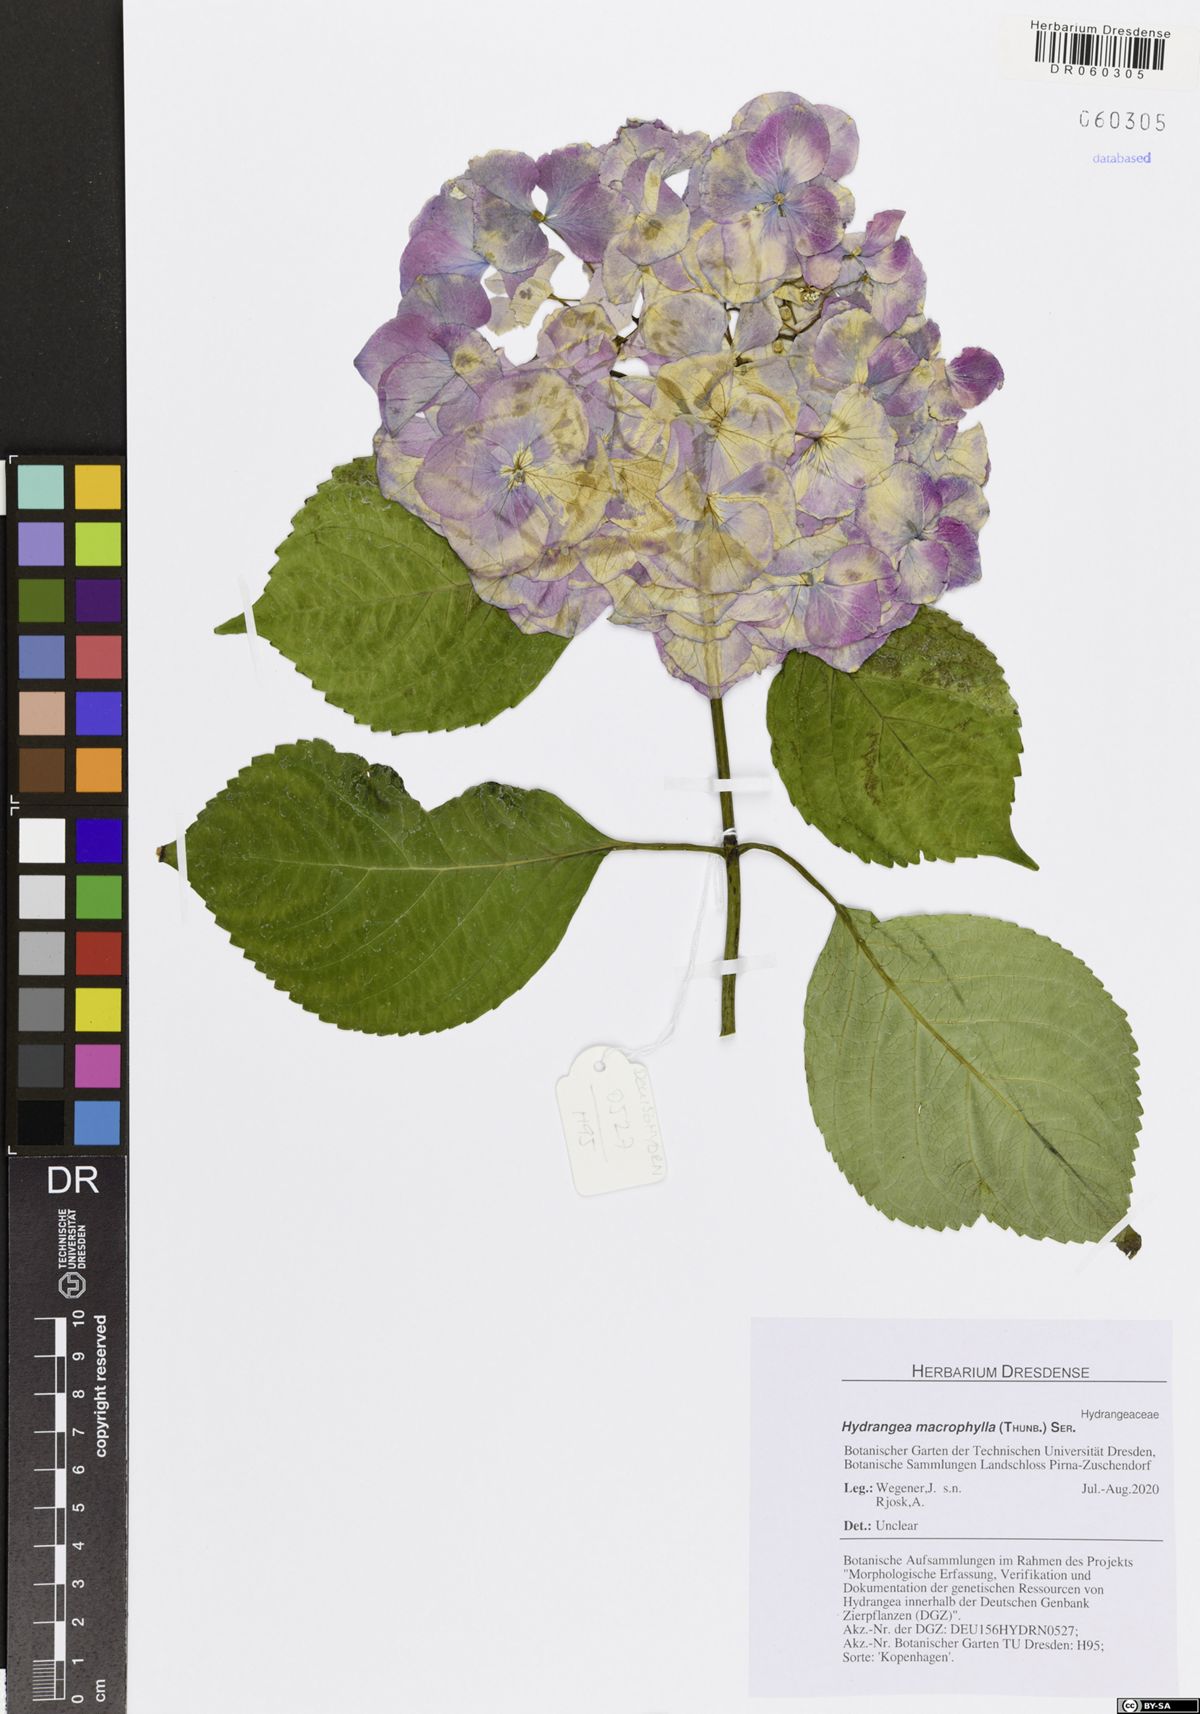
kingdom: Plantae
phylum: Tracheophyta
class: Magnoliopsida
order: Cornales
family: Hydrangeaceae
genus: Hydrangea
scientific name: Hydrangea macrophylla
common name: Hydrangea
